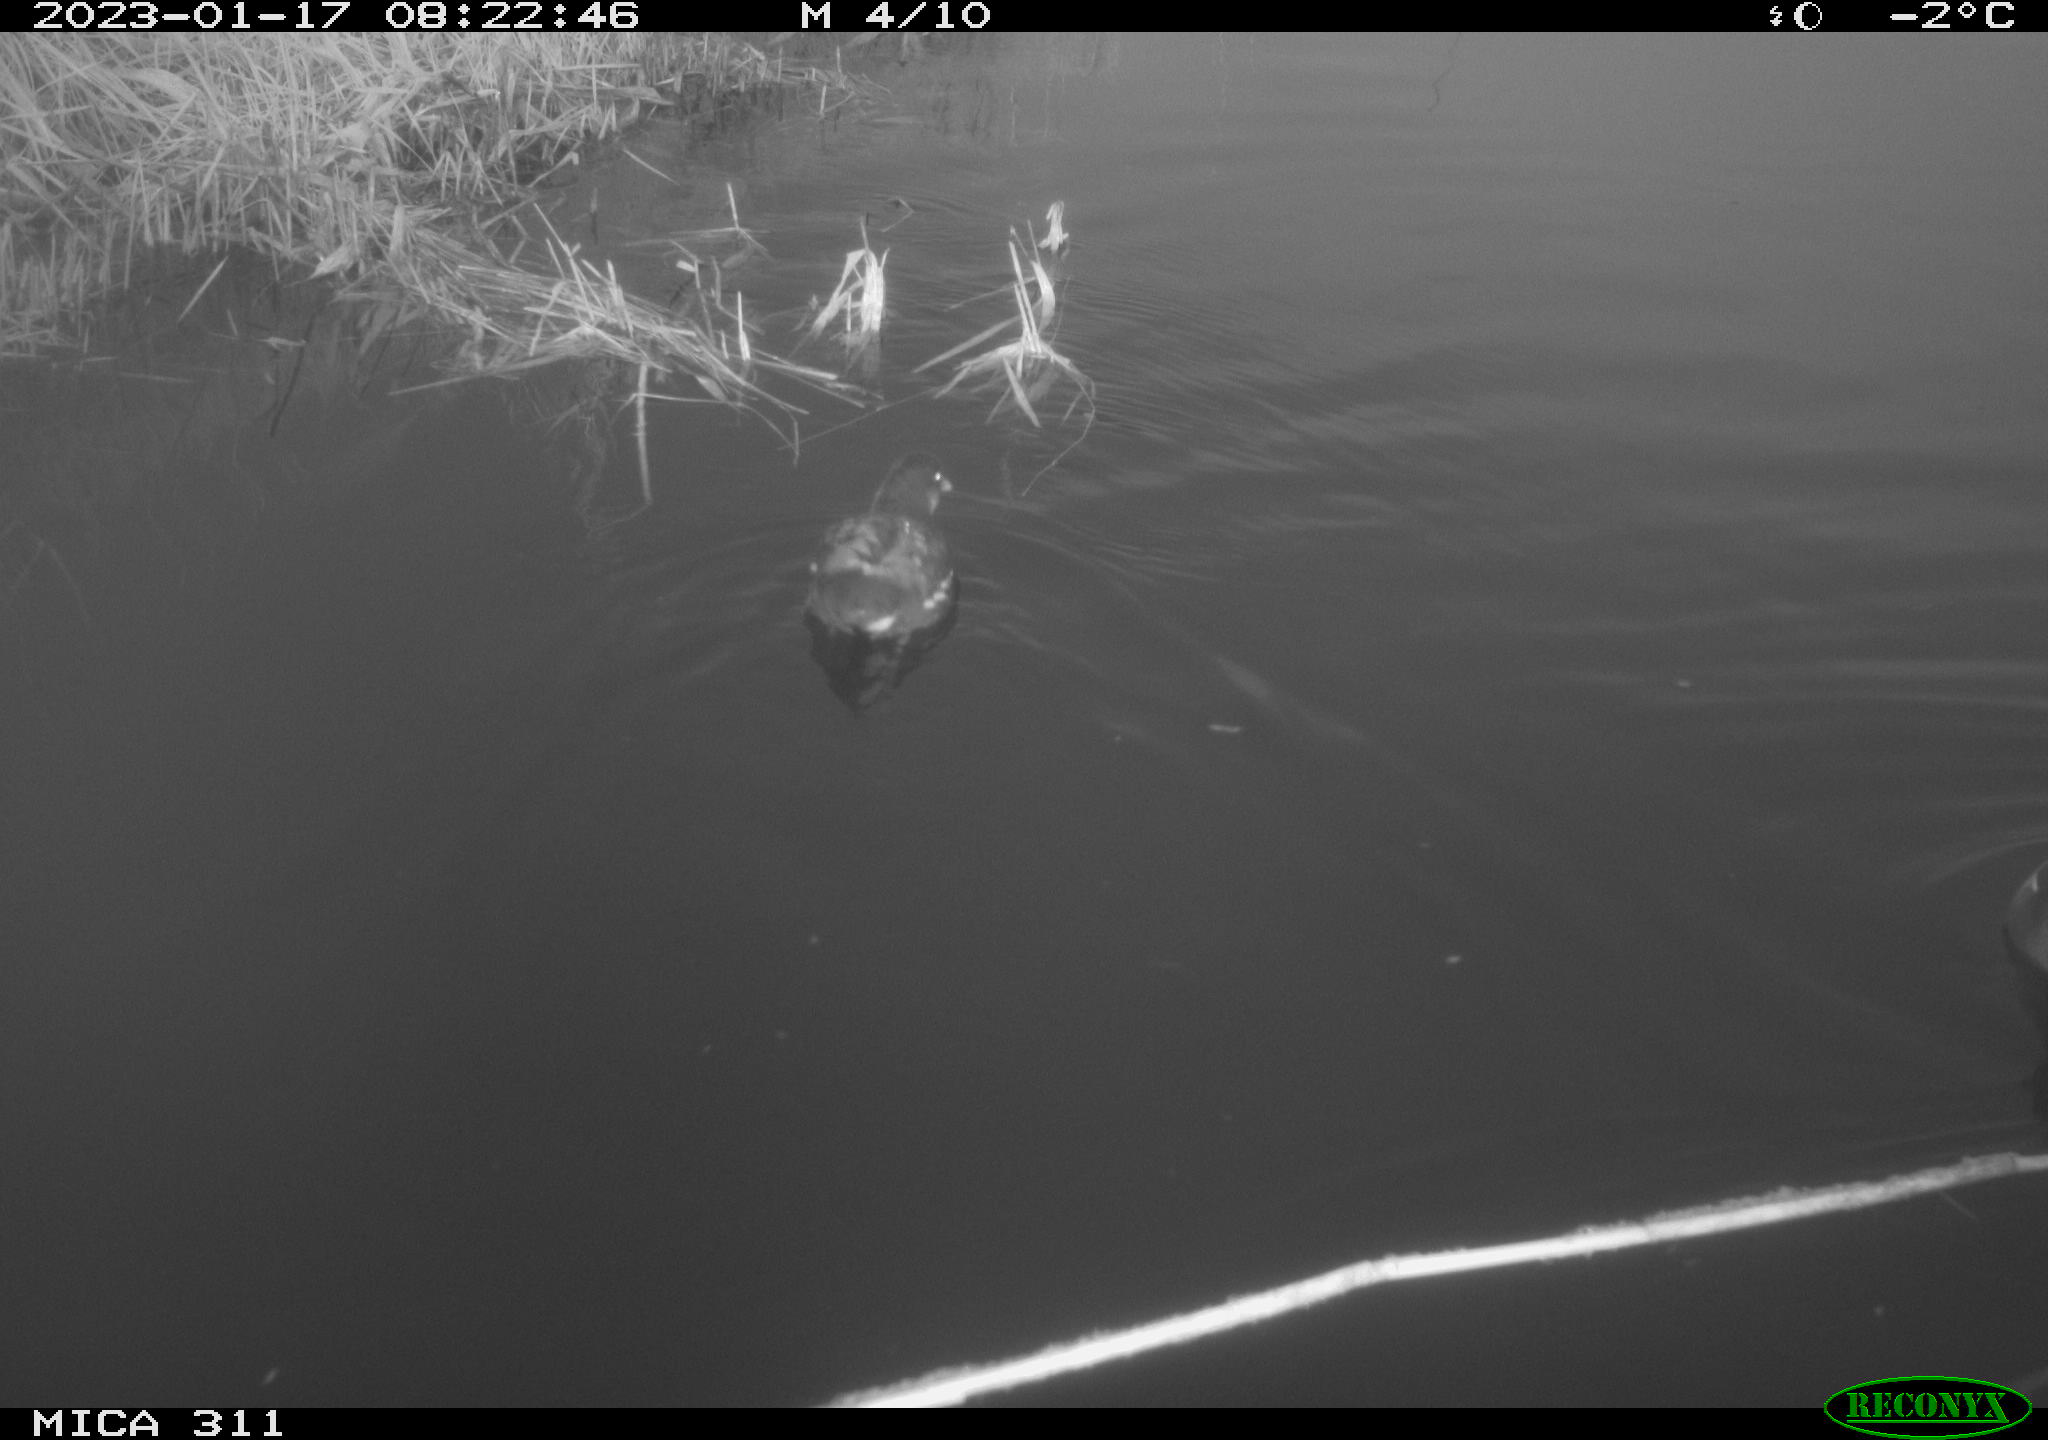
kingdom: Animalia
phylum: Chordata
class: Aves
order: Gruiformes
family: Rallidae
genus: Gallinula
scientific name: Gallinula chloropus
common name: Common moorhen
